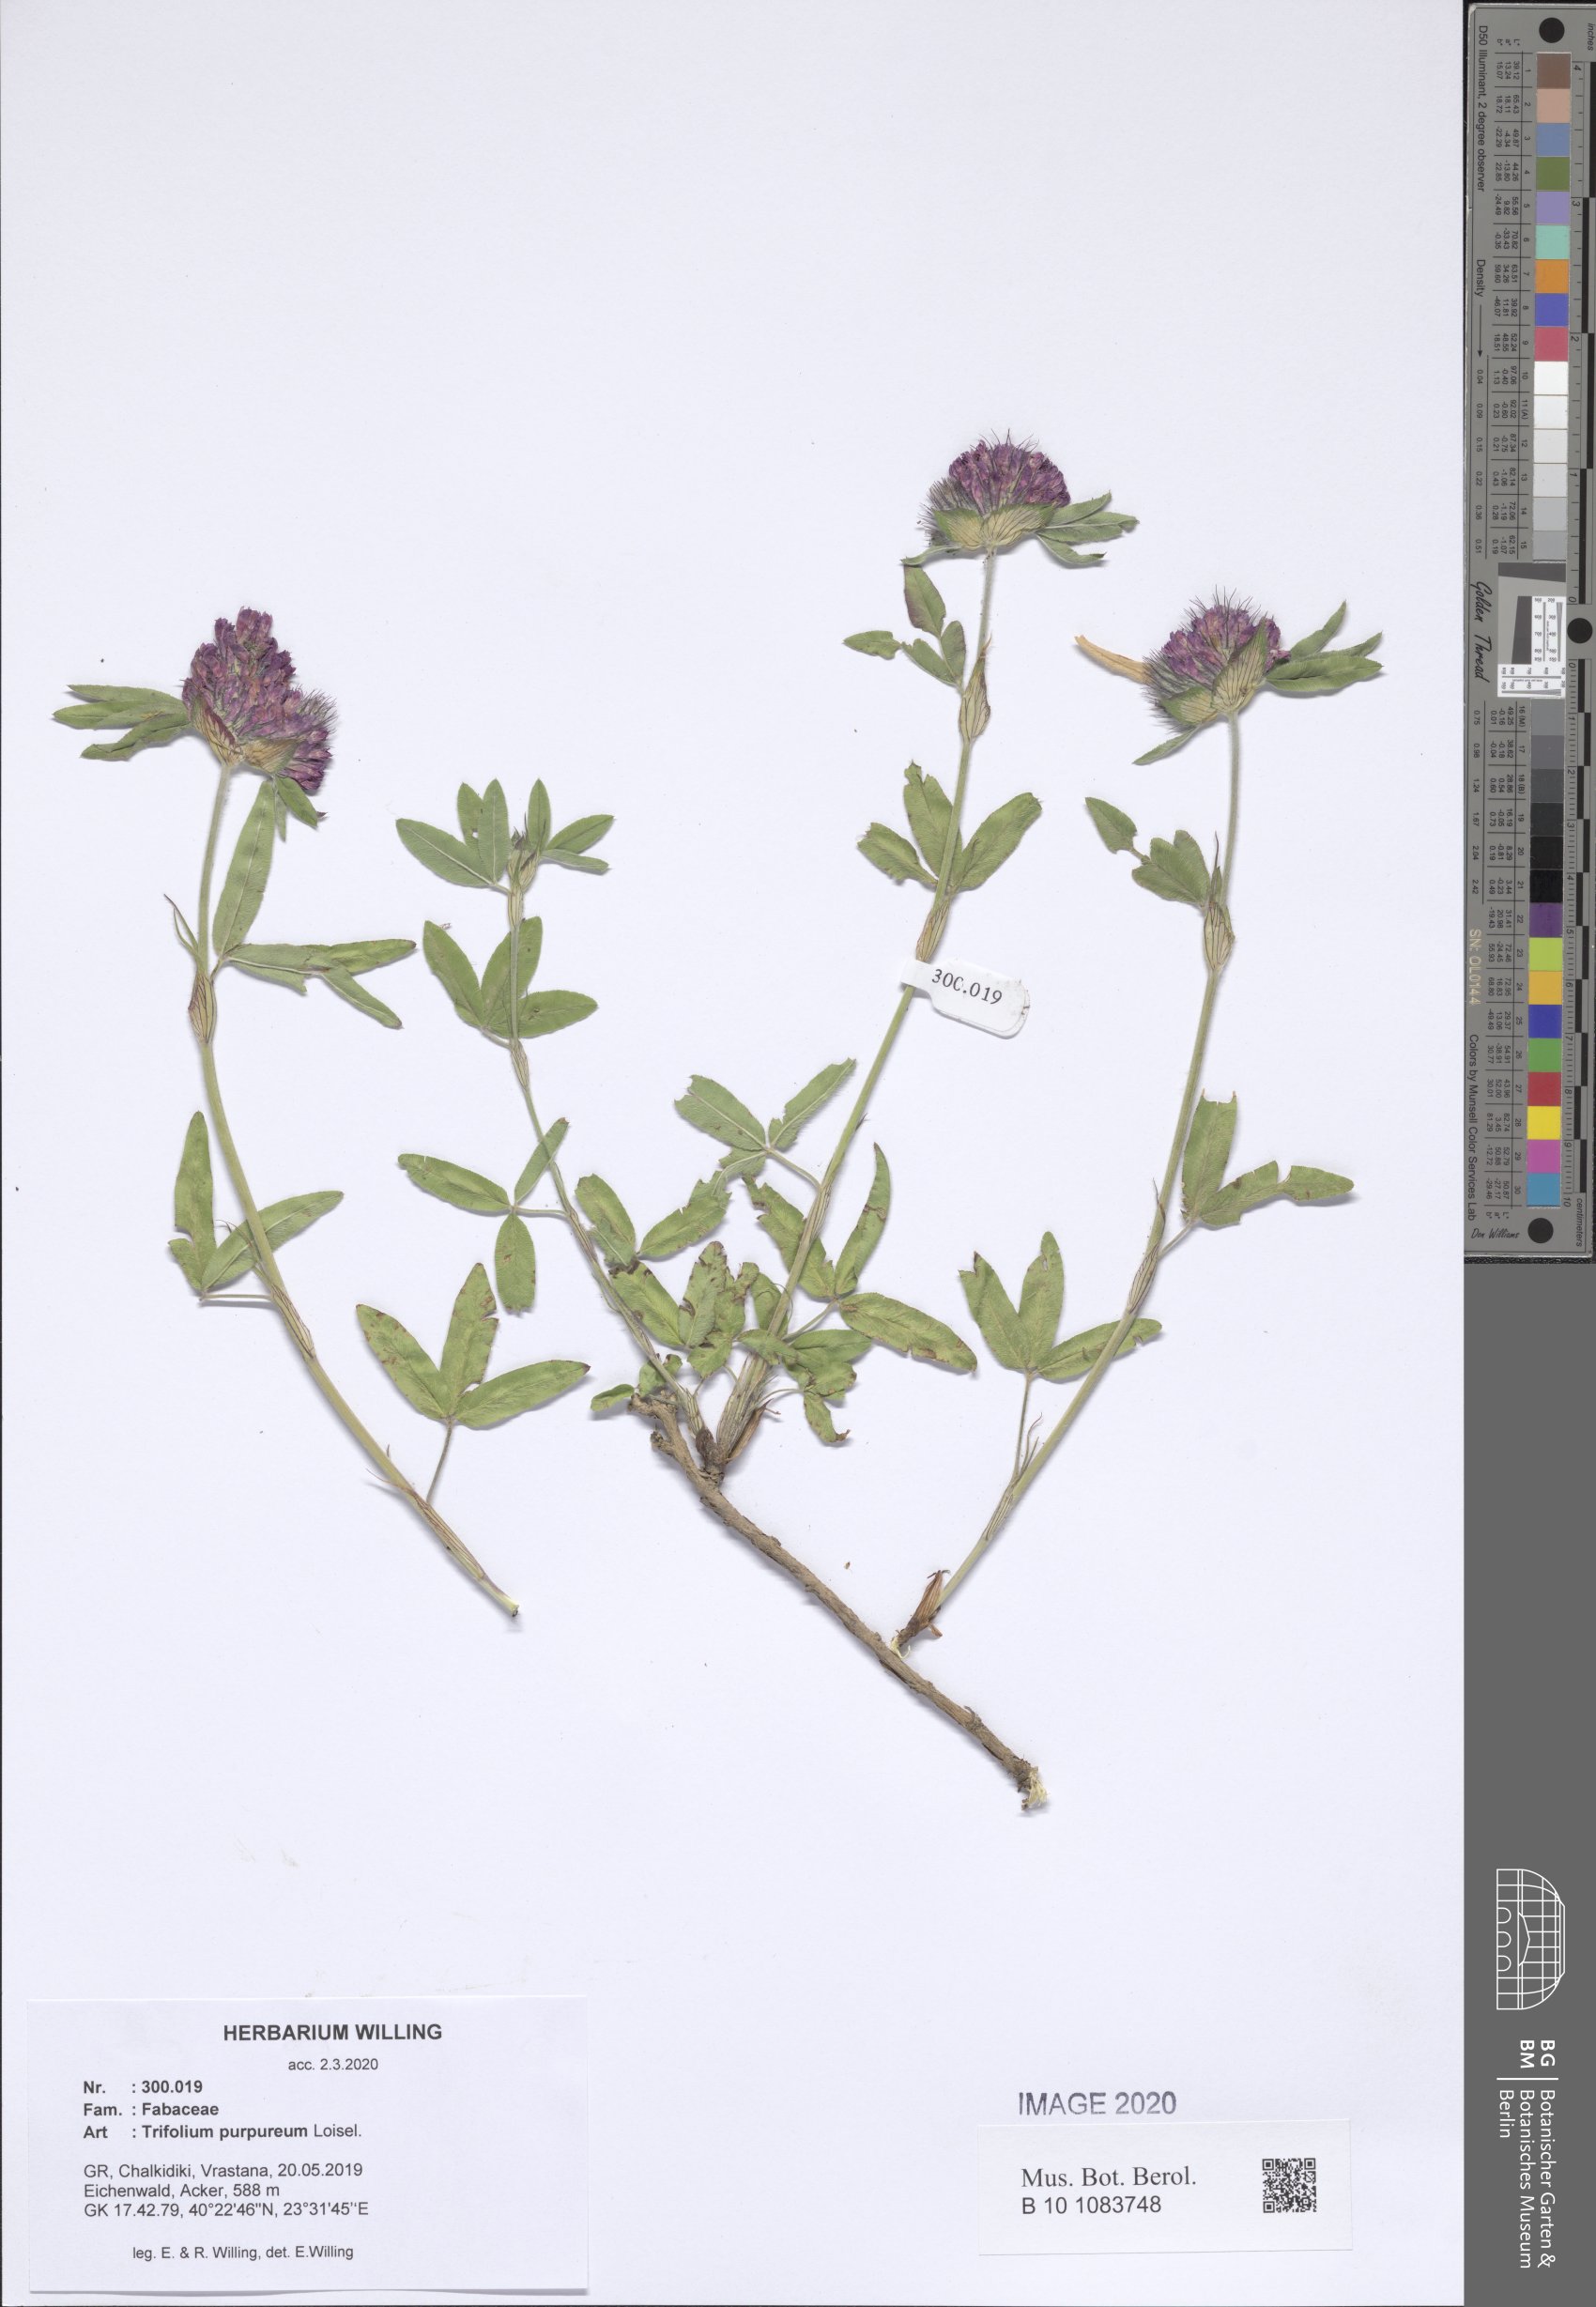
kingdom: Plantae
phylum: Tracheophyta
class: Magnoliopsida
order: Fabales
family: Fabaceae
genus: Trifolium
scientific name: Trifolium purpureum
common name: Purple clover
